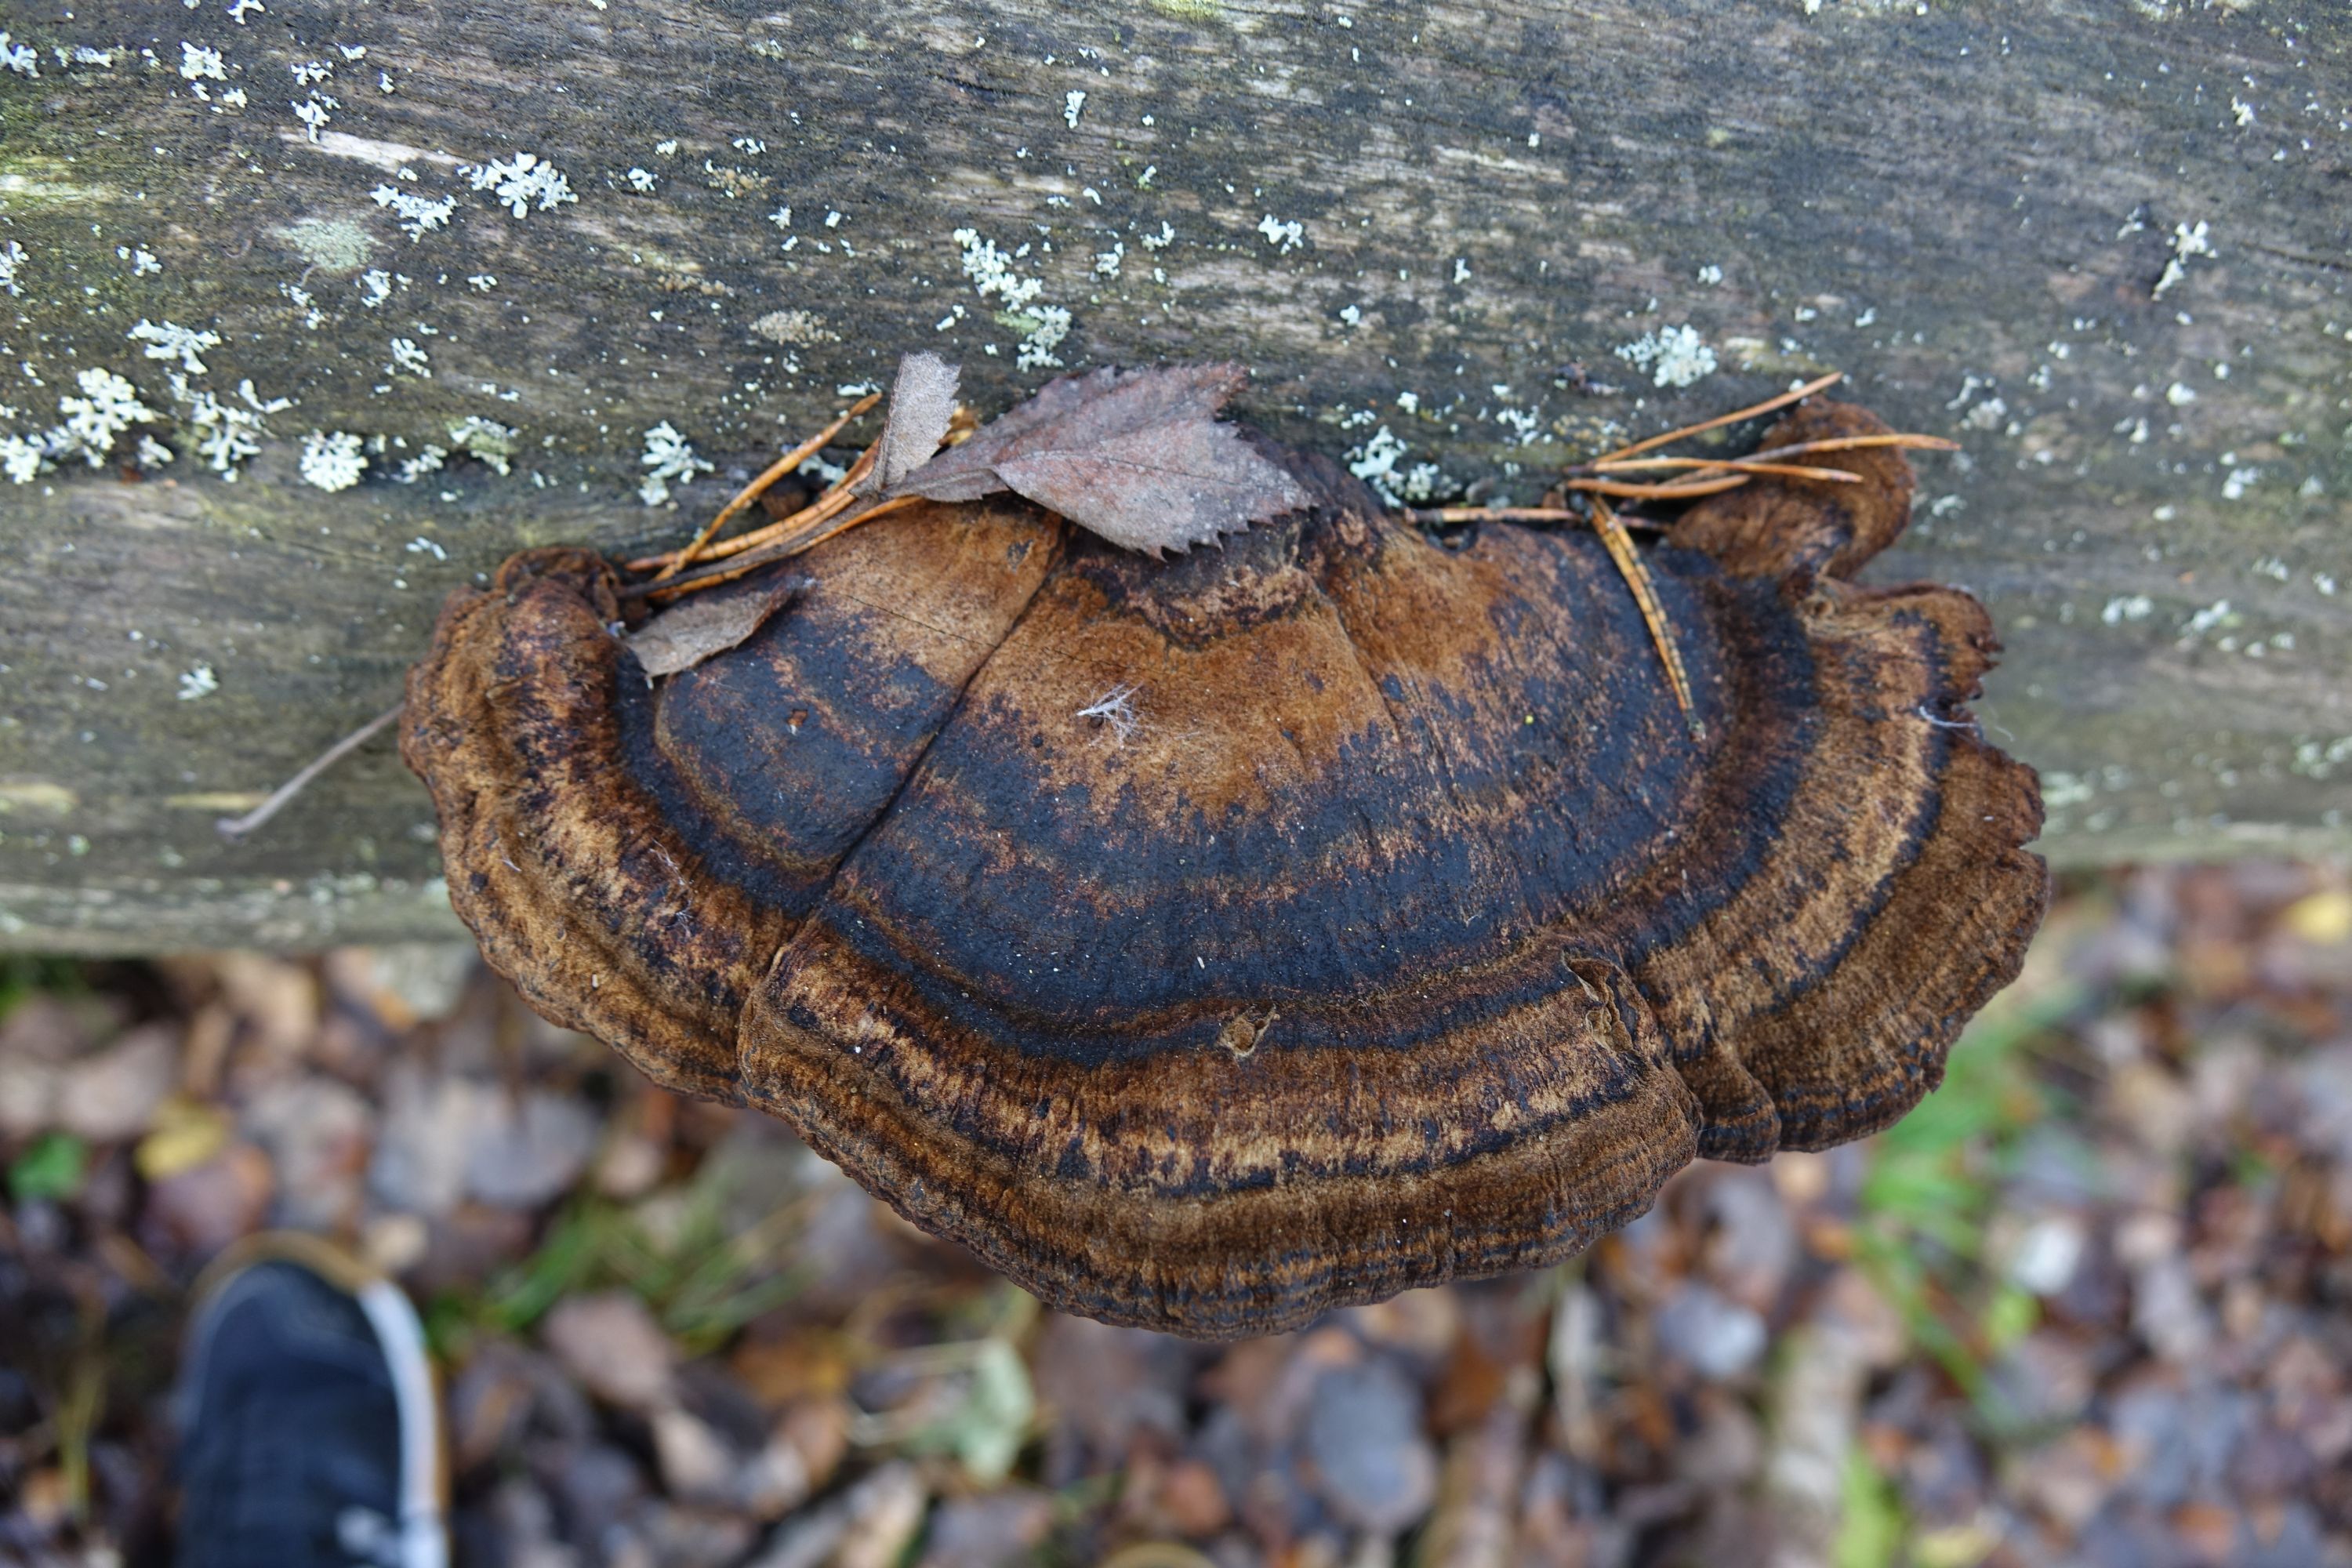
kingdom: Fungi
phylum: Basidiomycota
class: Agaricomycetes
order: Polyporales
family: Ischnodermataceae
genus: Ischnoderma
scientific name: Ischnoderma benzoinum
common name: Benzoin bracket
